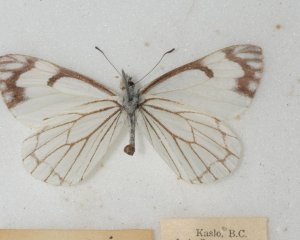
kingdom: Animalia
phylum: Arthropoda
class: Insecta
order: Lepidoptera
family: Pieridae
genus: Neophasia
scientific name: Neophasia menapia
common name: Pine White
